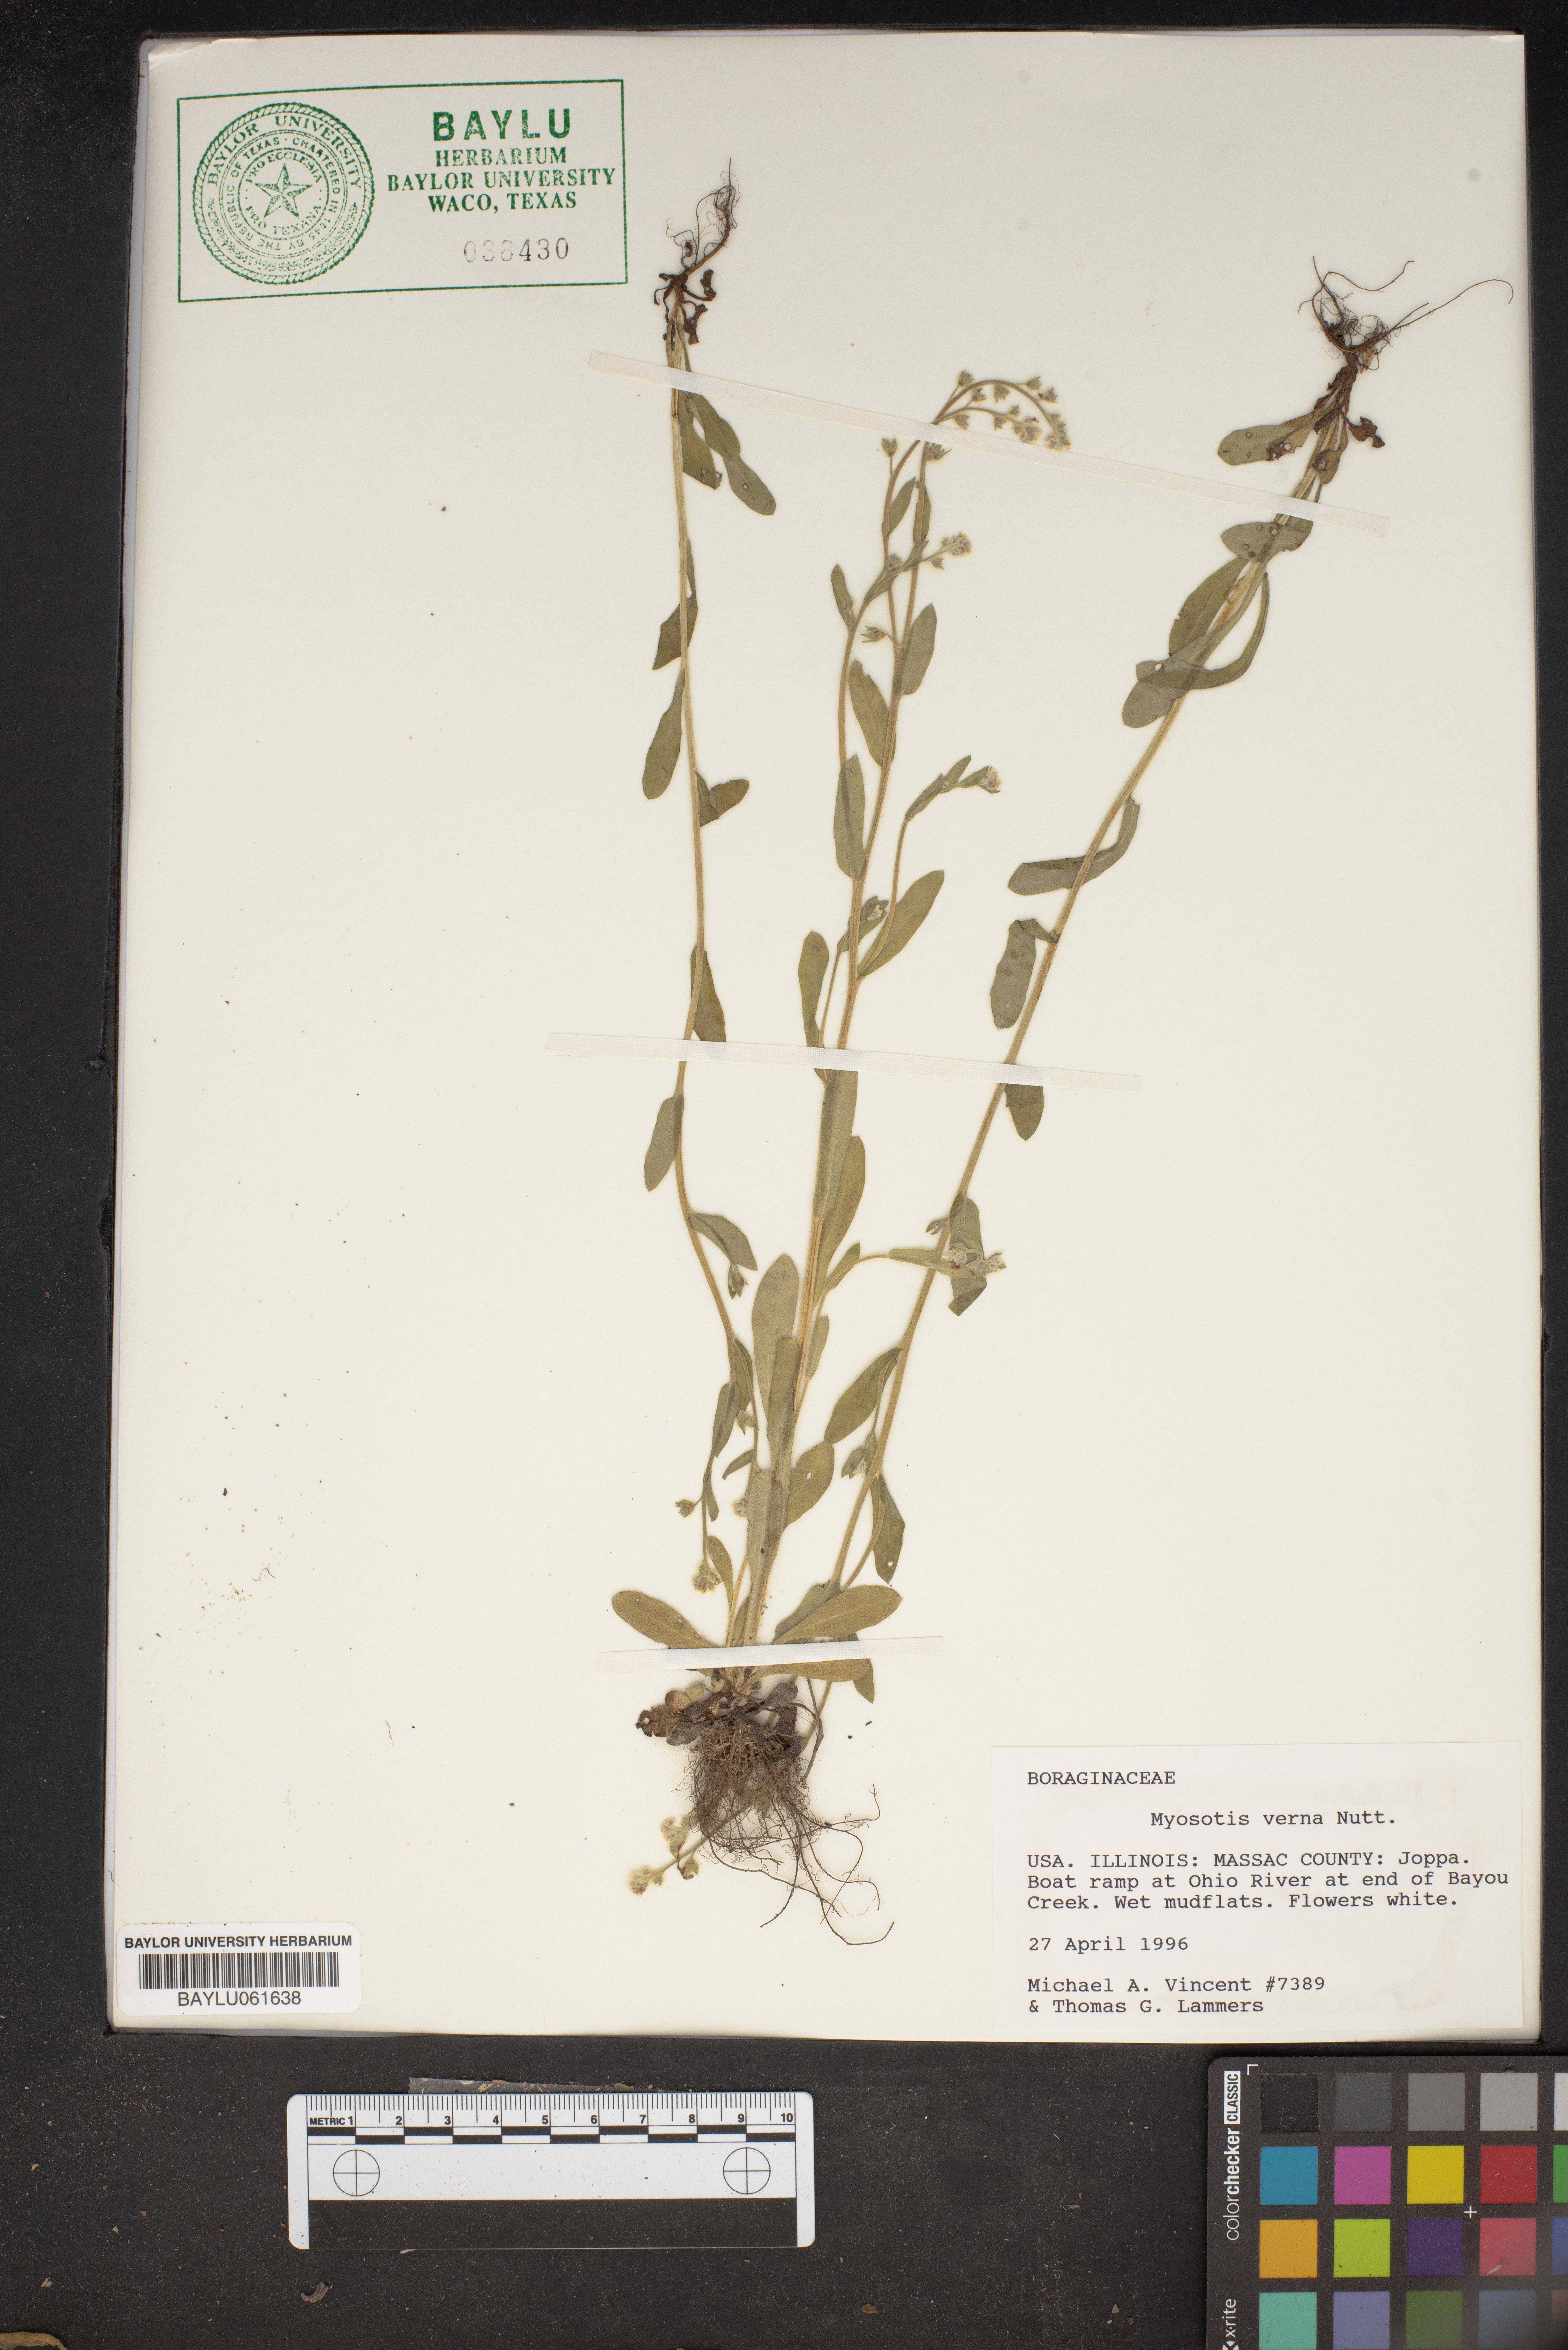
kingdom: Plantae
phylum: Tracheophyta
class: Magnoliopsida
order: Boraginales
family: Boraginaceae
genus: Myosotis
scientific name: Myosotis verna
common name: Early forget-me-not
